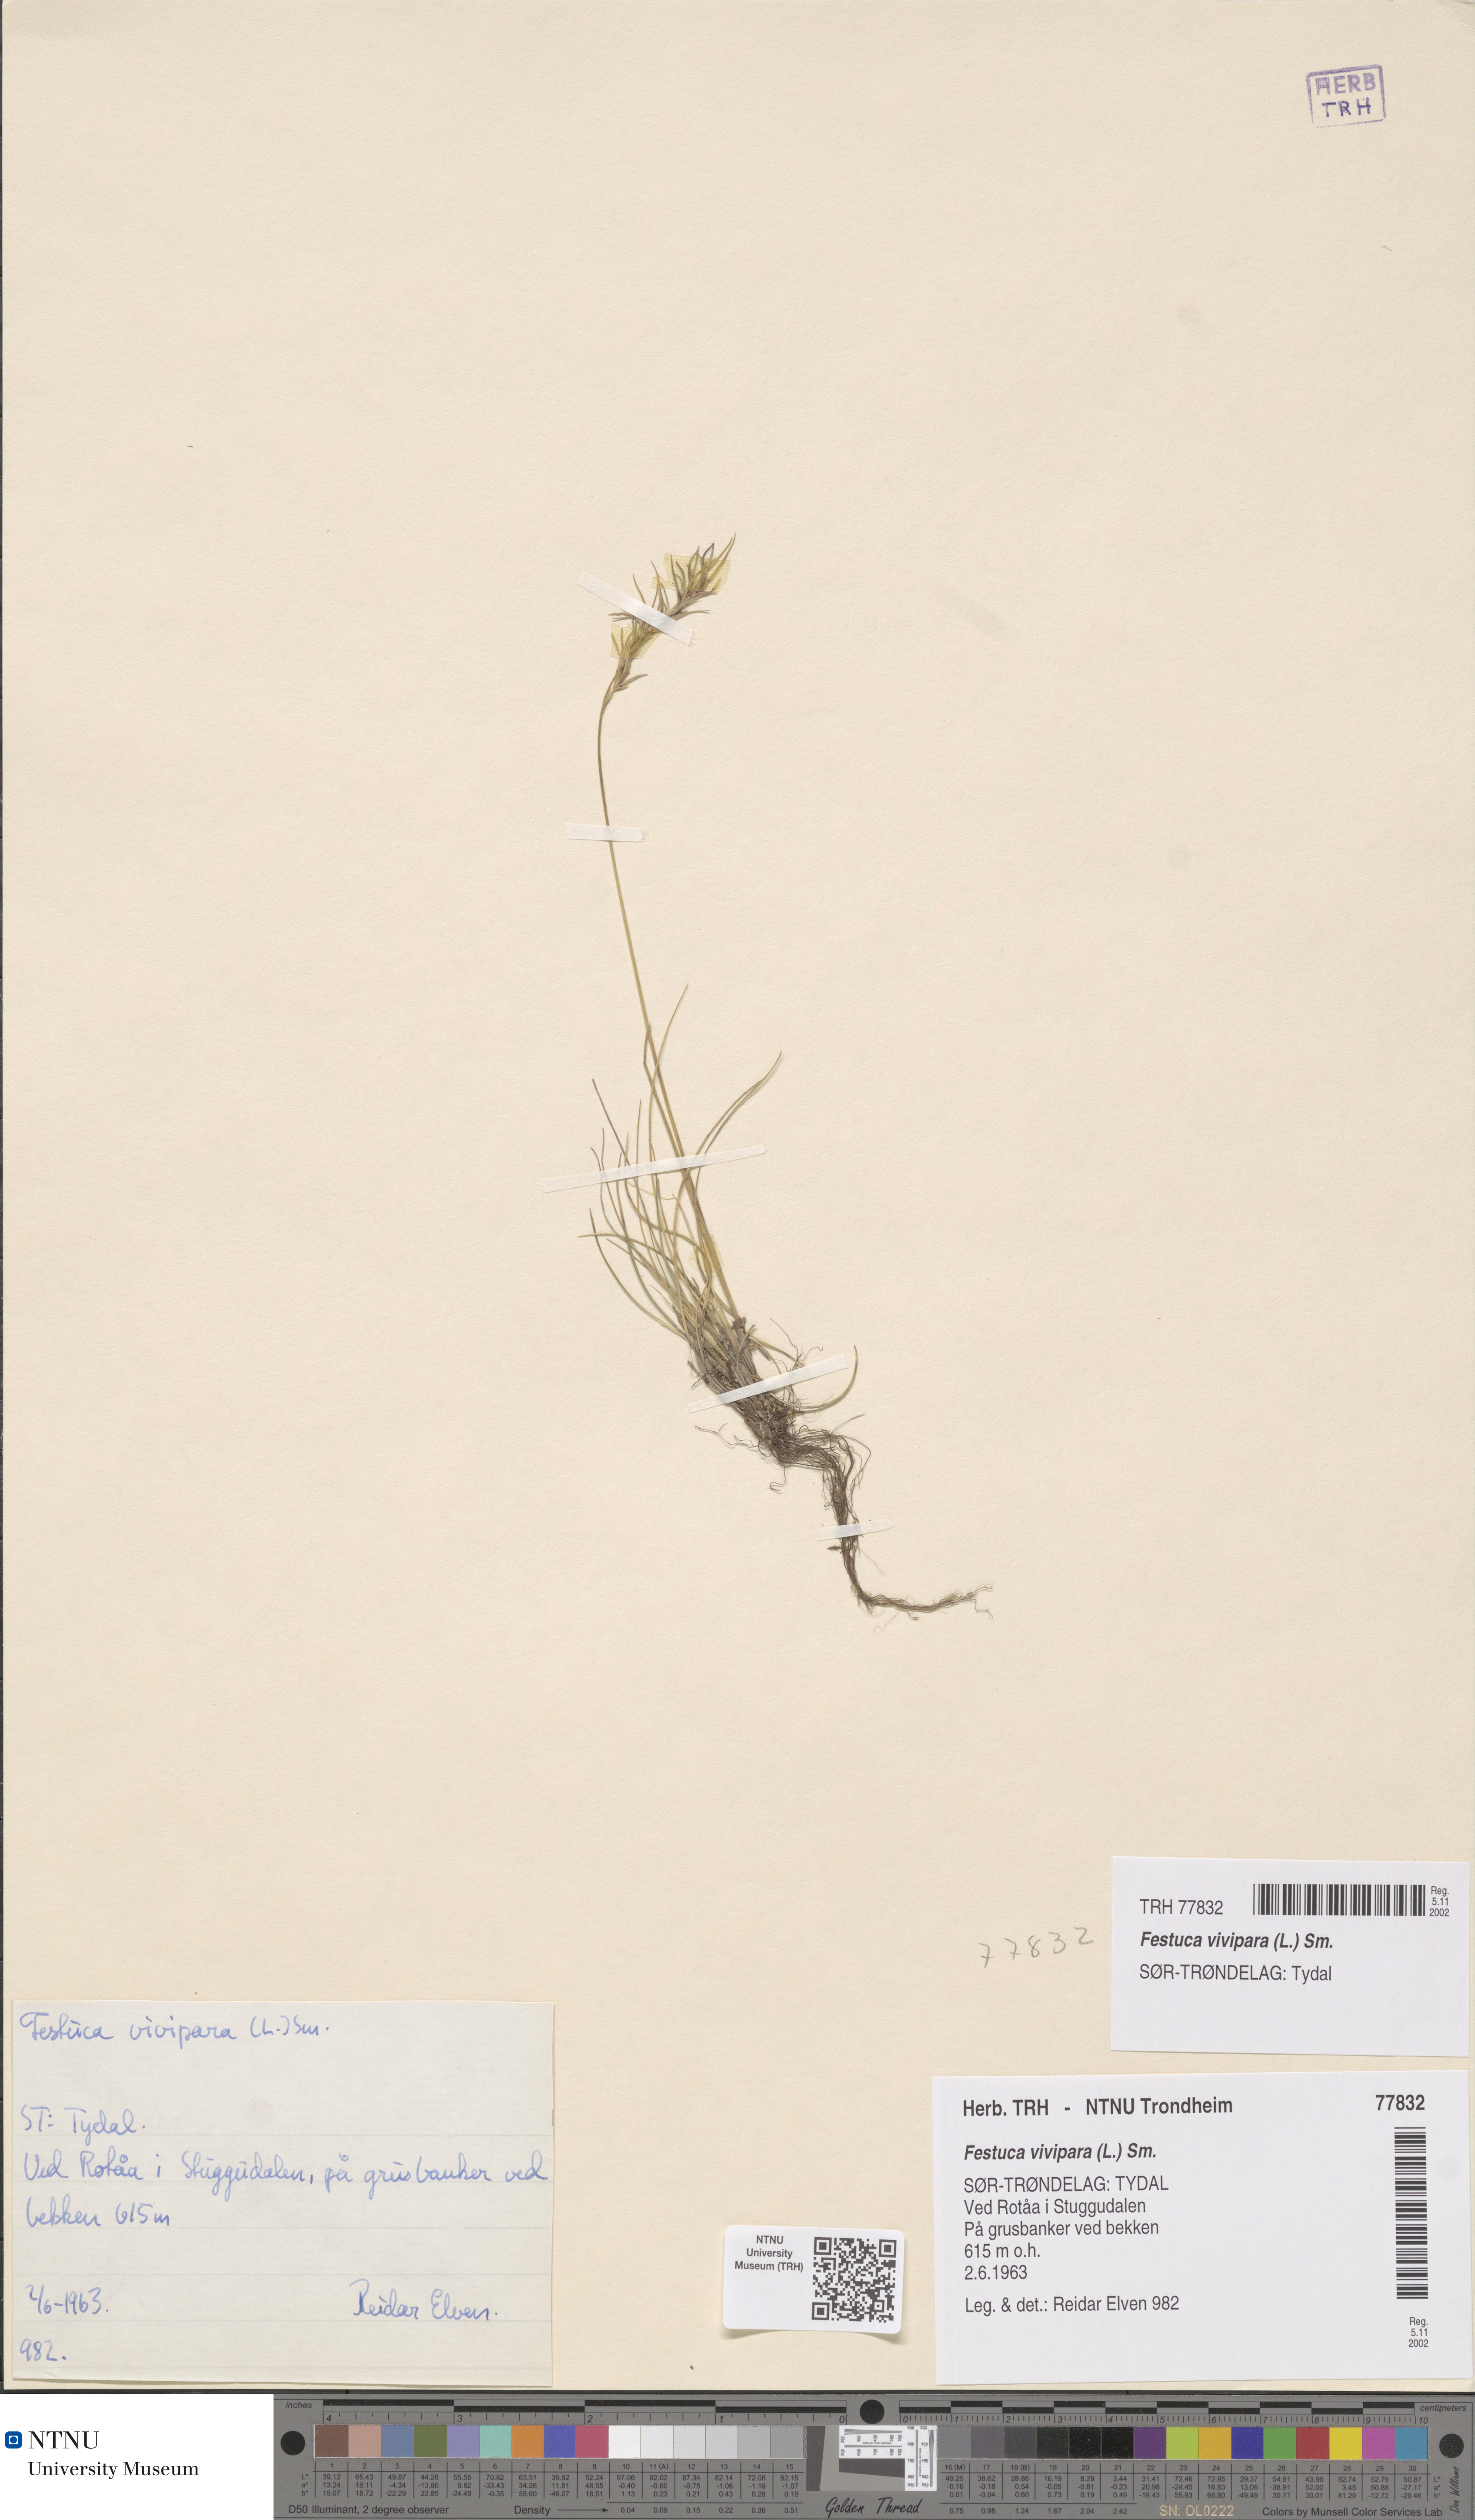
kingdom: Plantae
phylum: Tracheophyta
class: Liliopsida
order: Poales
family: Poaceae
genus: Festuca
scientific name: Festuca vivipara
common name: Viviparous sheep's-fescue
